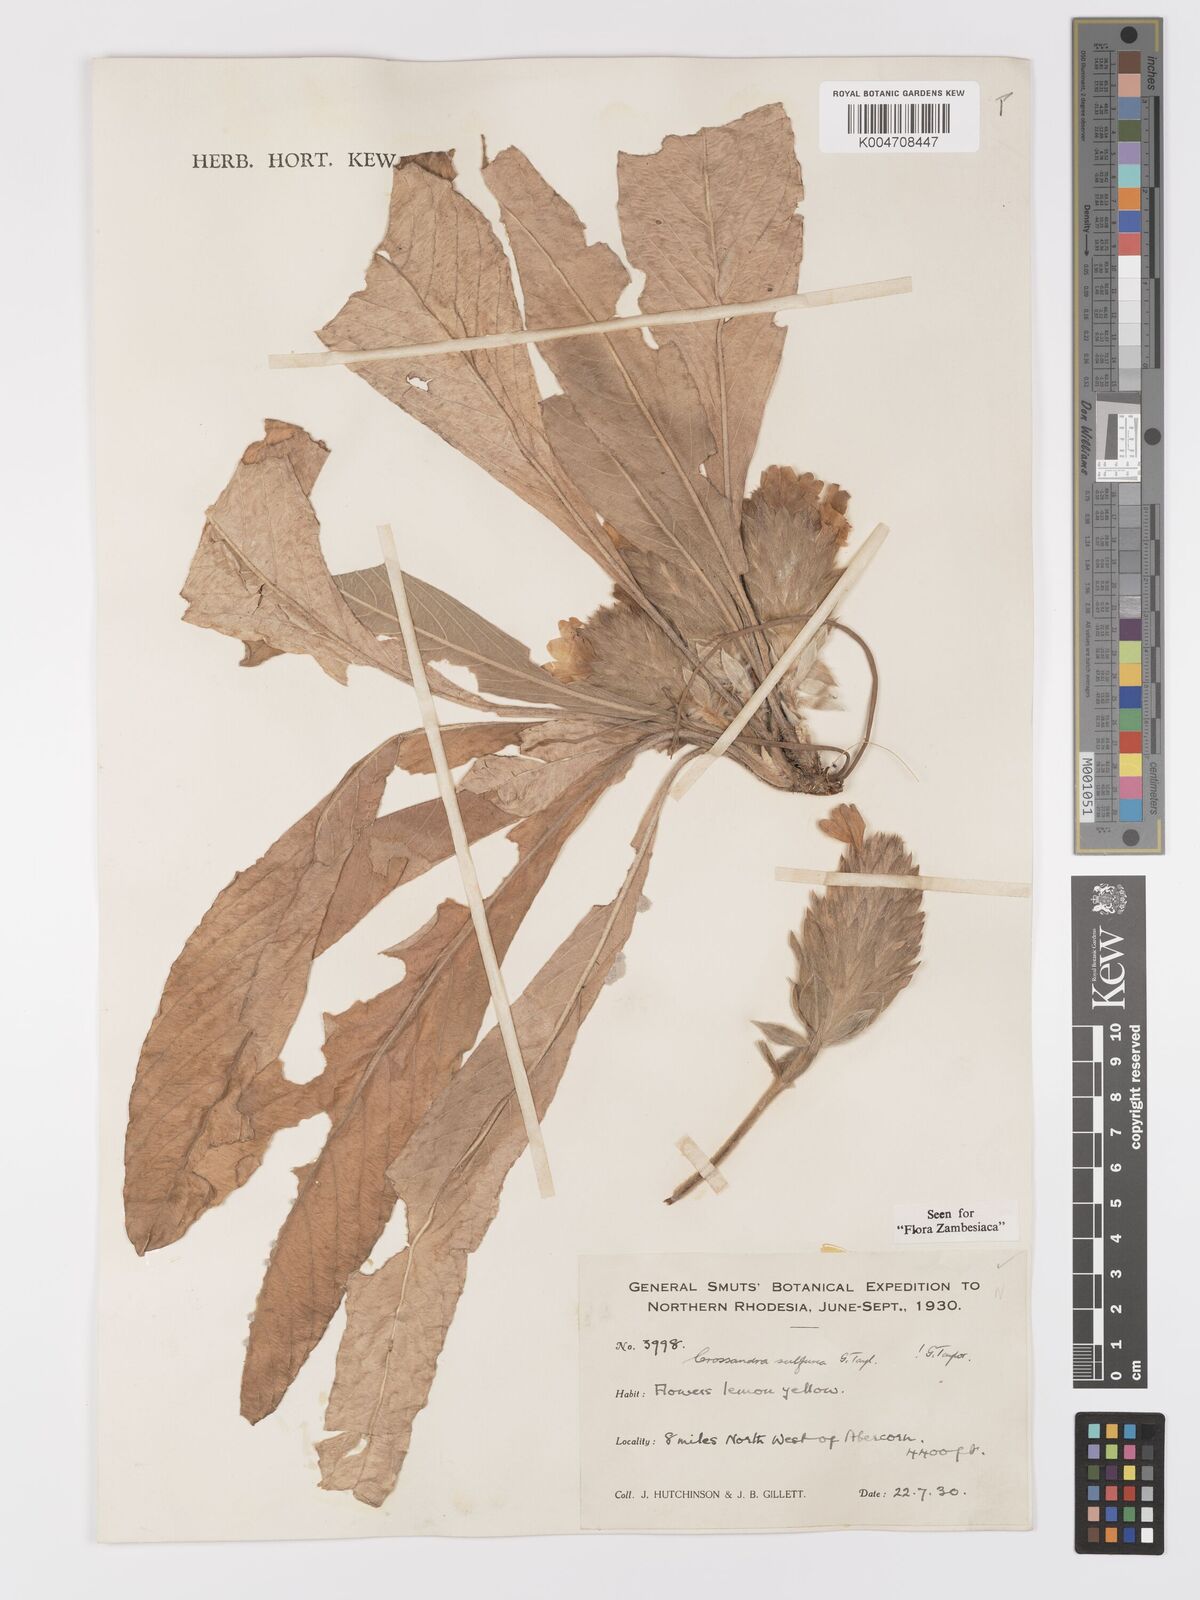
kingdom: Plantae
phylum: Tracheophyta
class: Magnoliopsida
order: Lamiales
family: Acanthaceae
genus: Crossandra
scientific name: Crossandra sulphurea
